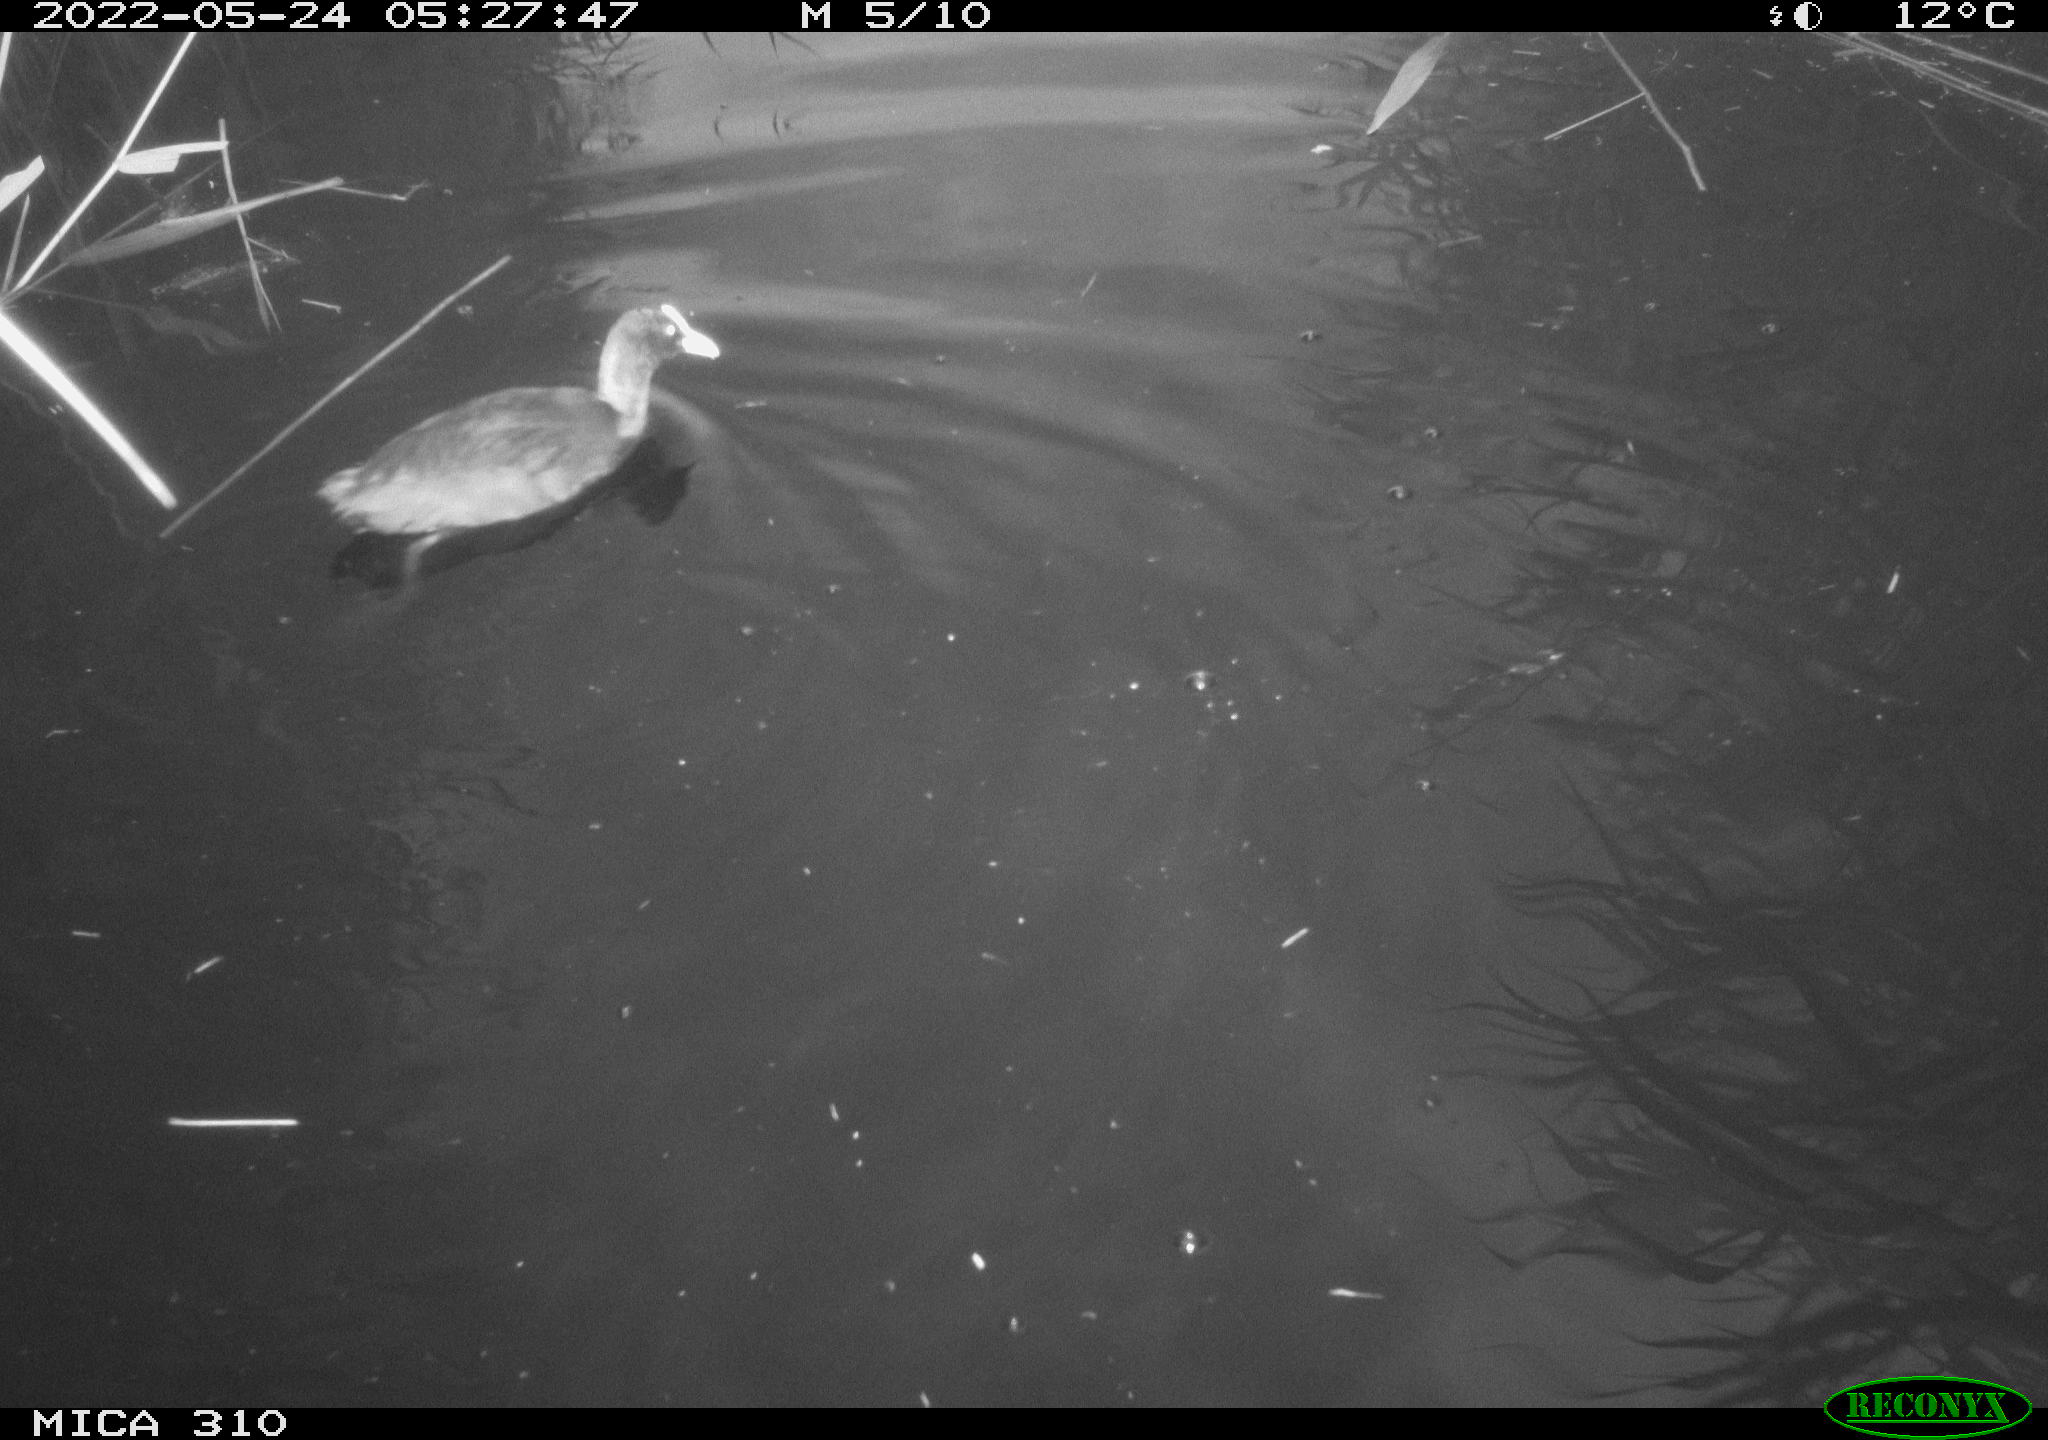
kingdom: Animalia
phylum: Chordata
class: Aves
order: Gruiformes
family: Rallidae
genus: Gallinula
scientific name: Gallinula chloropus
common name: Common moorhen
